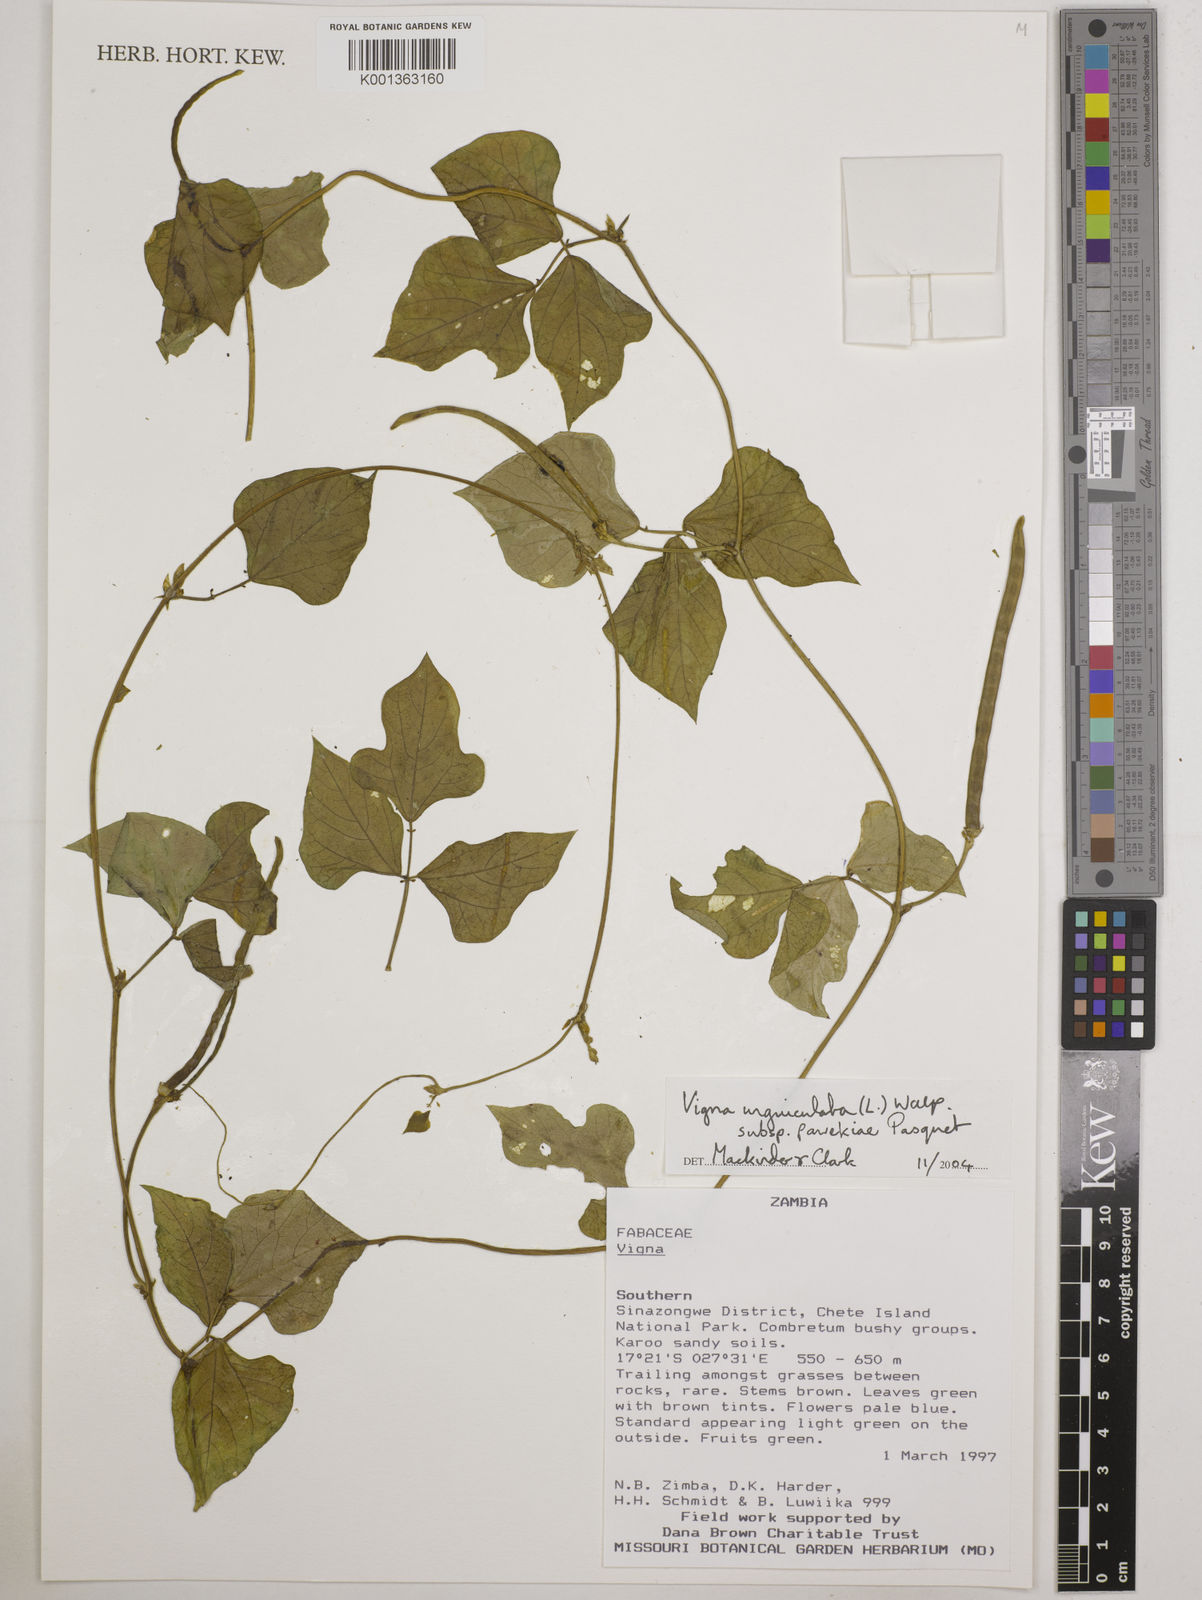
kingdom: Plantae
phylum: Tracheophyta
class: Magnoliopsida
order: Fabales
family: Fabaceae
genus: Vigna
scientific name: Vigna unguiculata
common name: Cowpea
